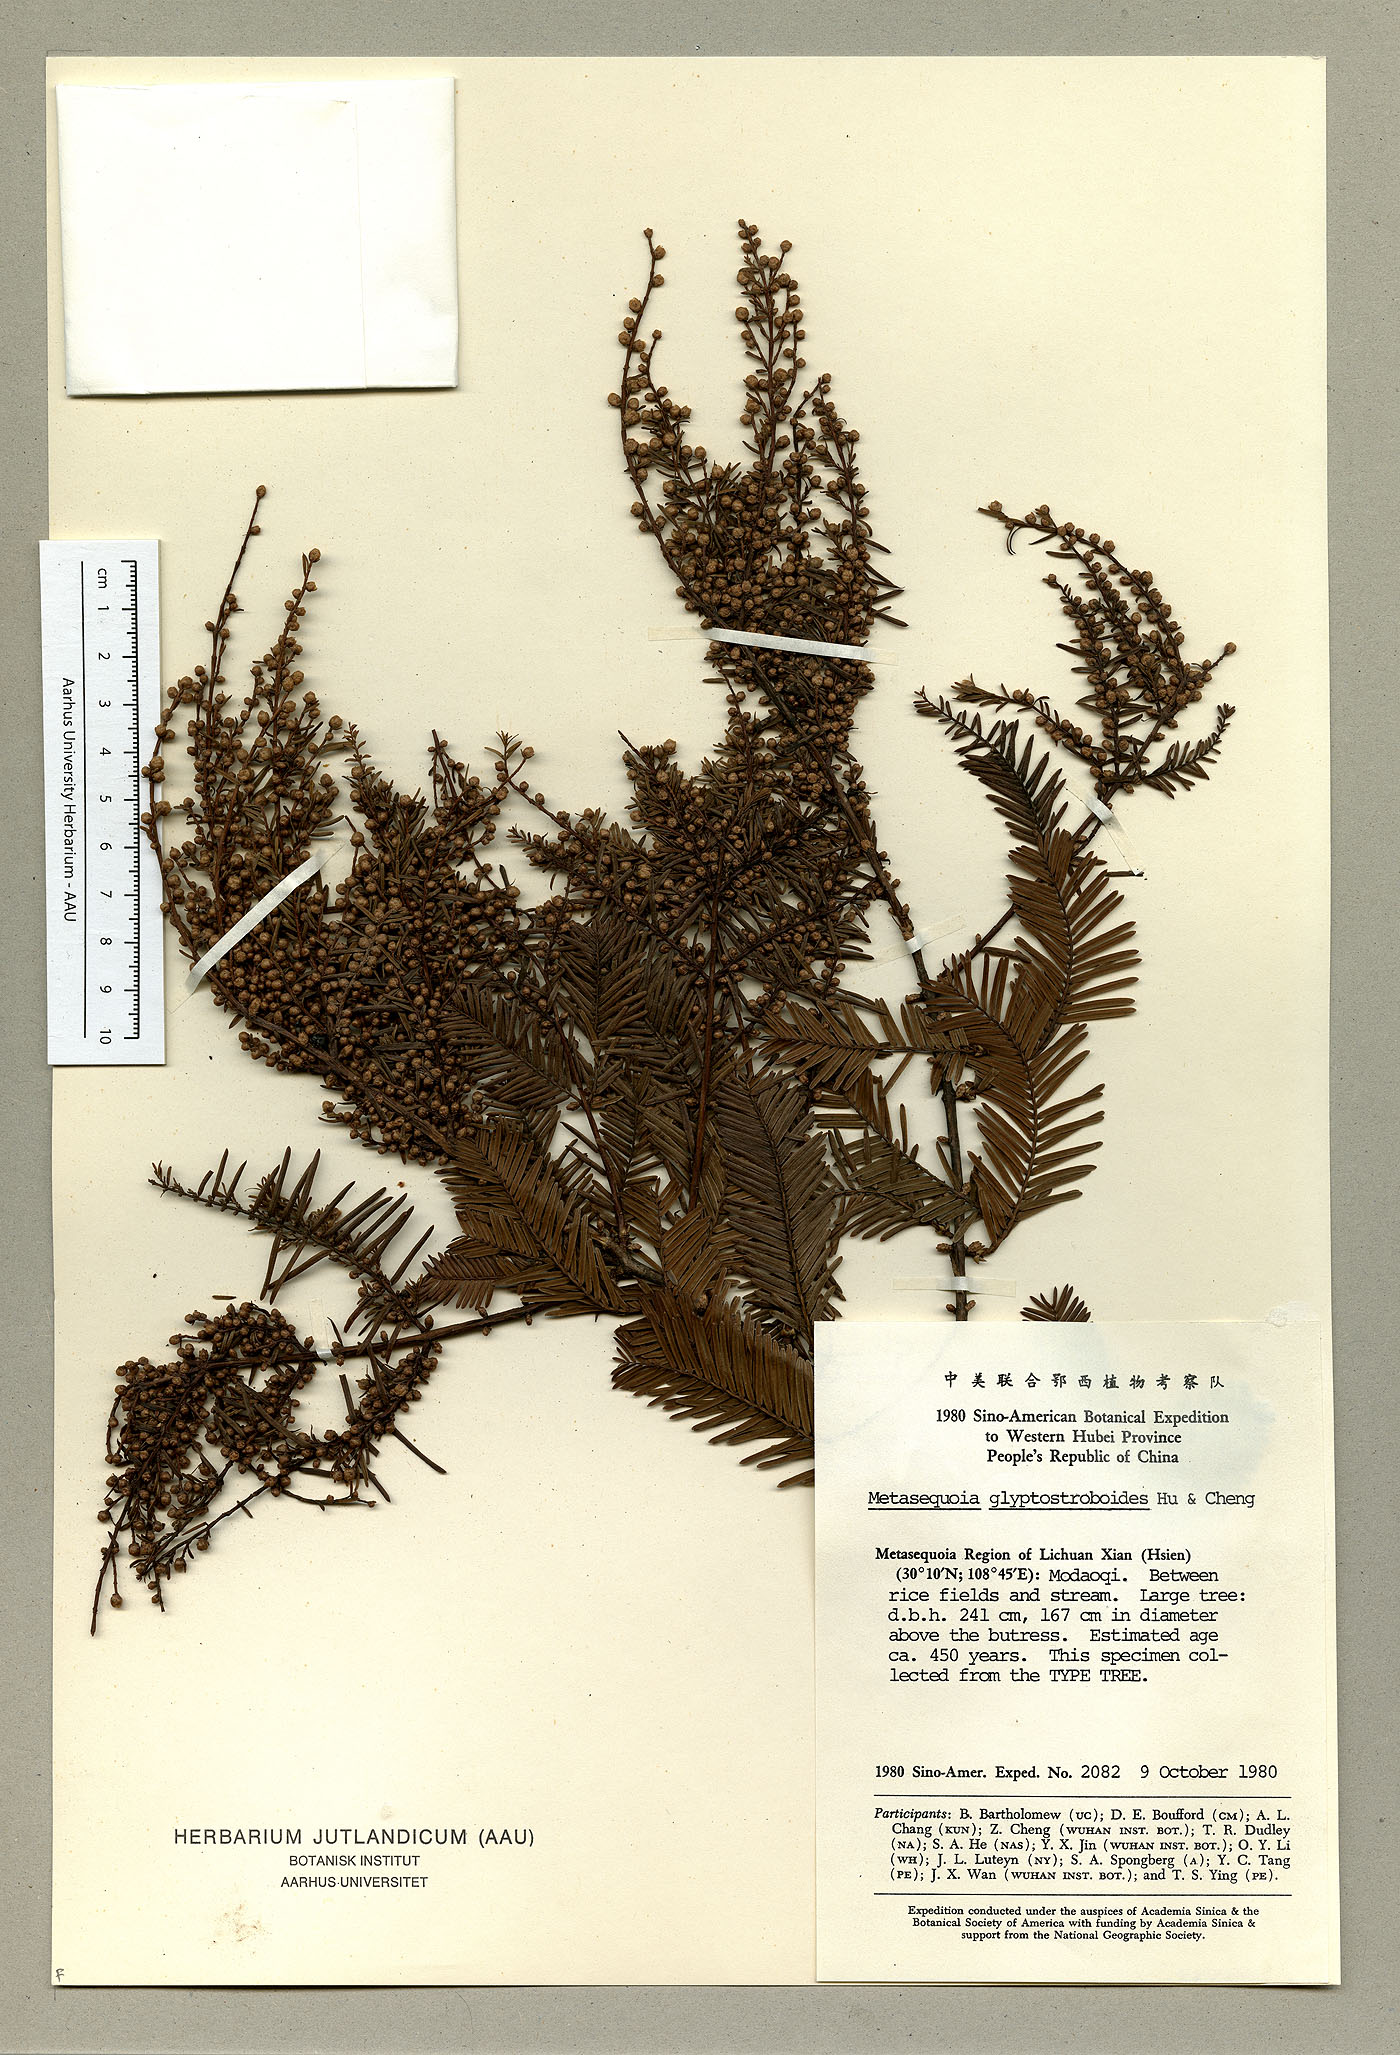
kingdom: Plantae
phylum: Tracheophyta
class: Pinopsida
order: Pinales
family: Cupressaceae
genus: Metasequoia
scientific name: Metasequoia glyptostroboides
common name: Dawn redwood
